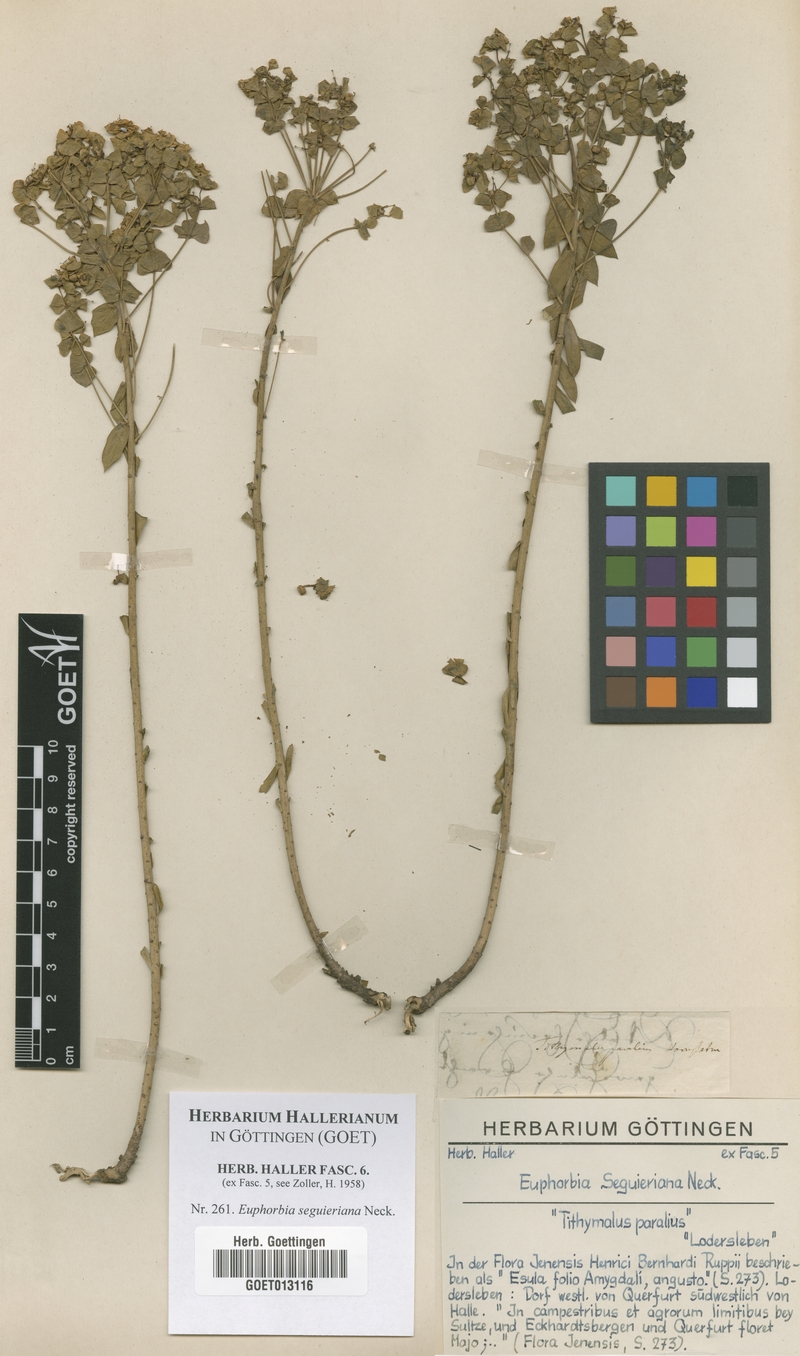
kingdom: Plantae
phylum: Tracheophyta
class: Magnoliopsida
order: Malpighiales
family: Euphorbiaceae
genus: Euphorbia
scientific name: Euphorbia seguieriana
